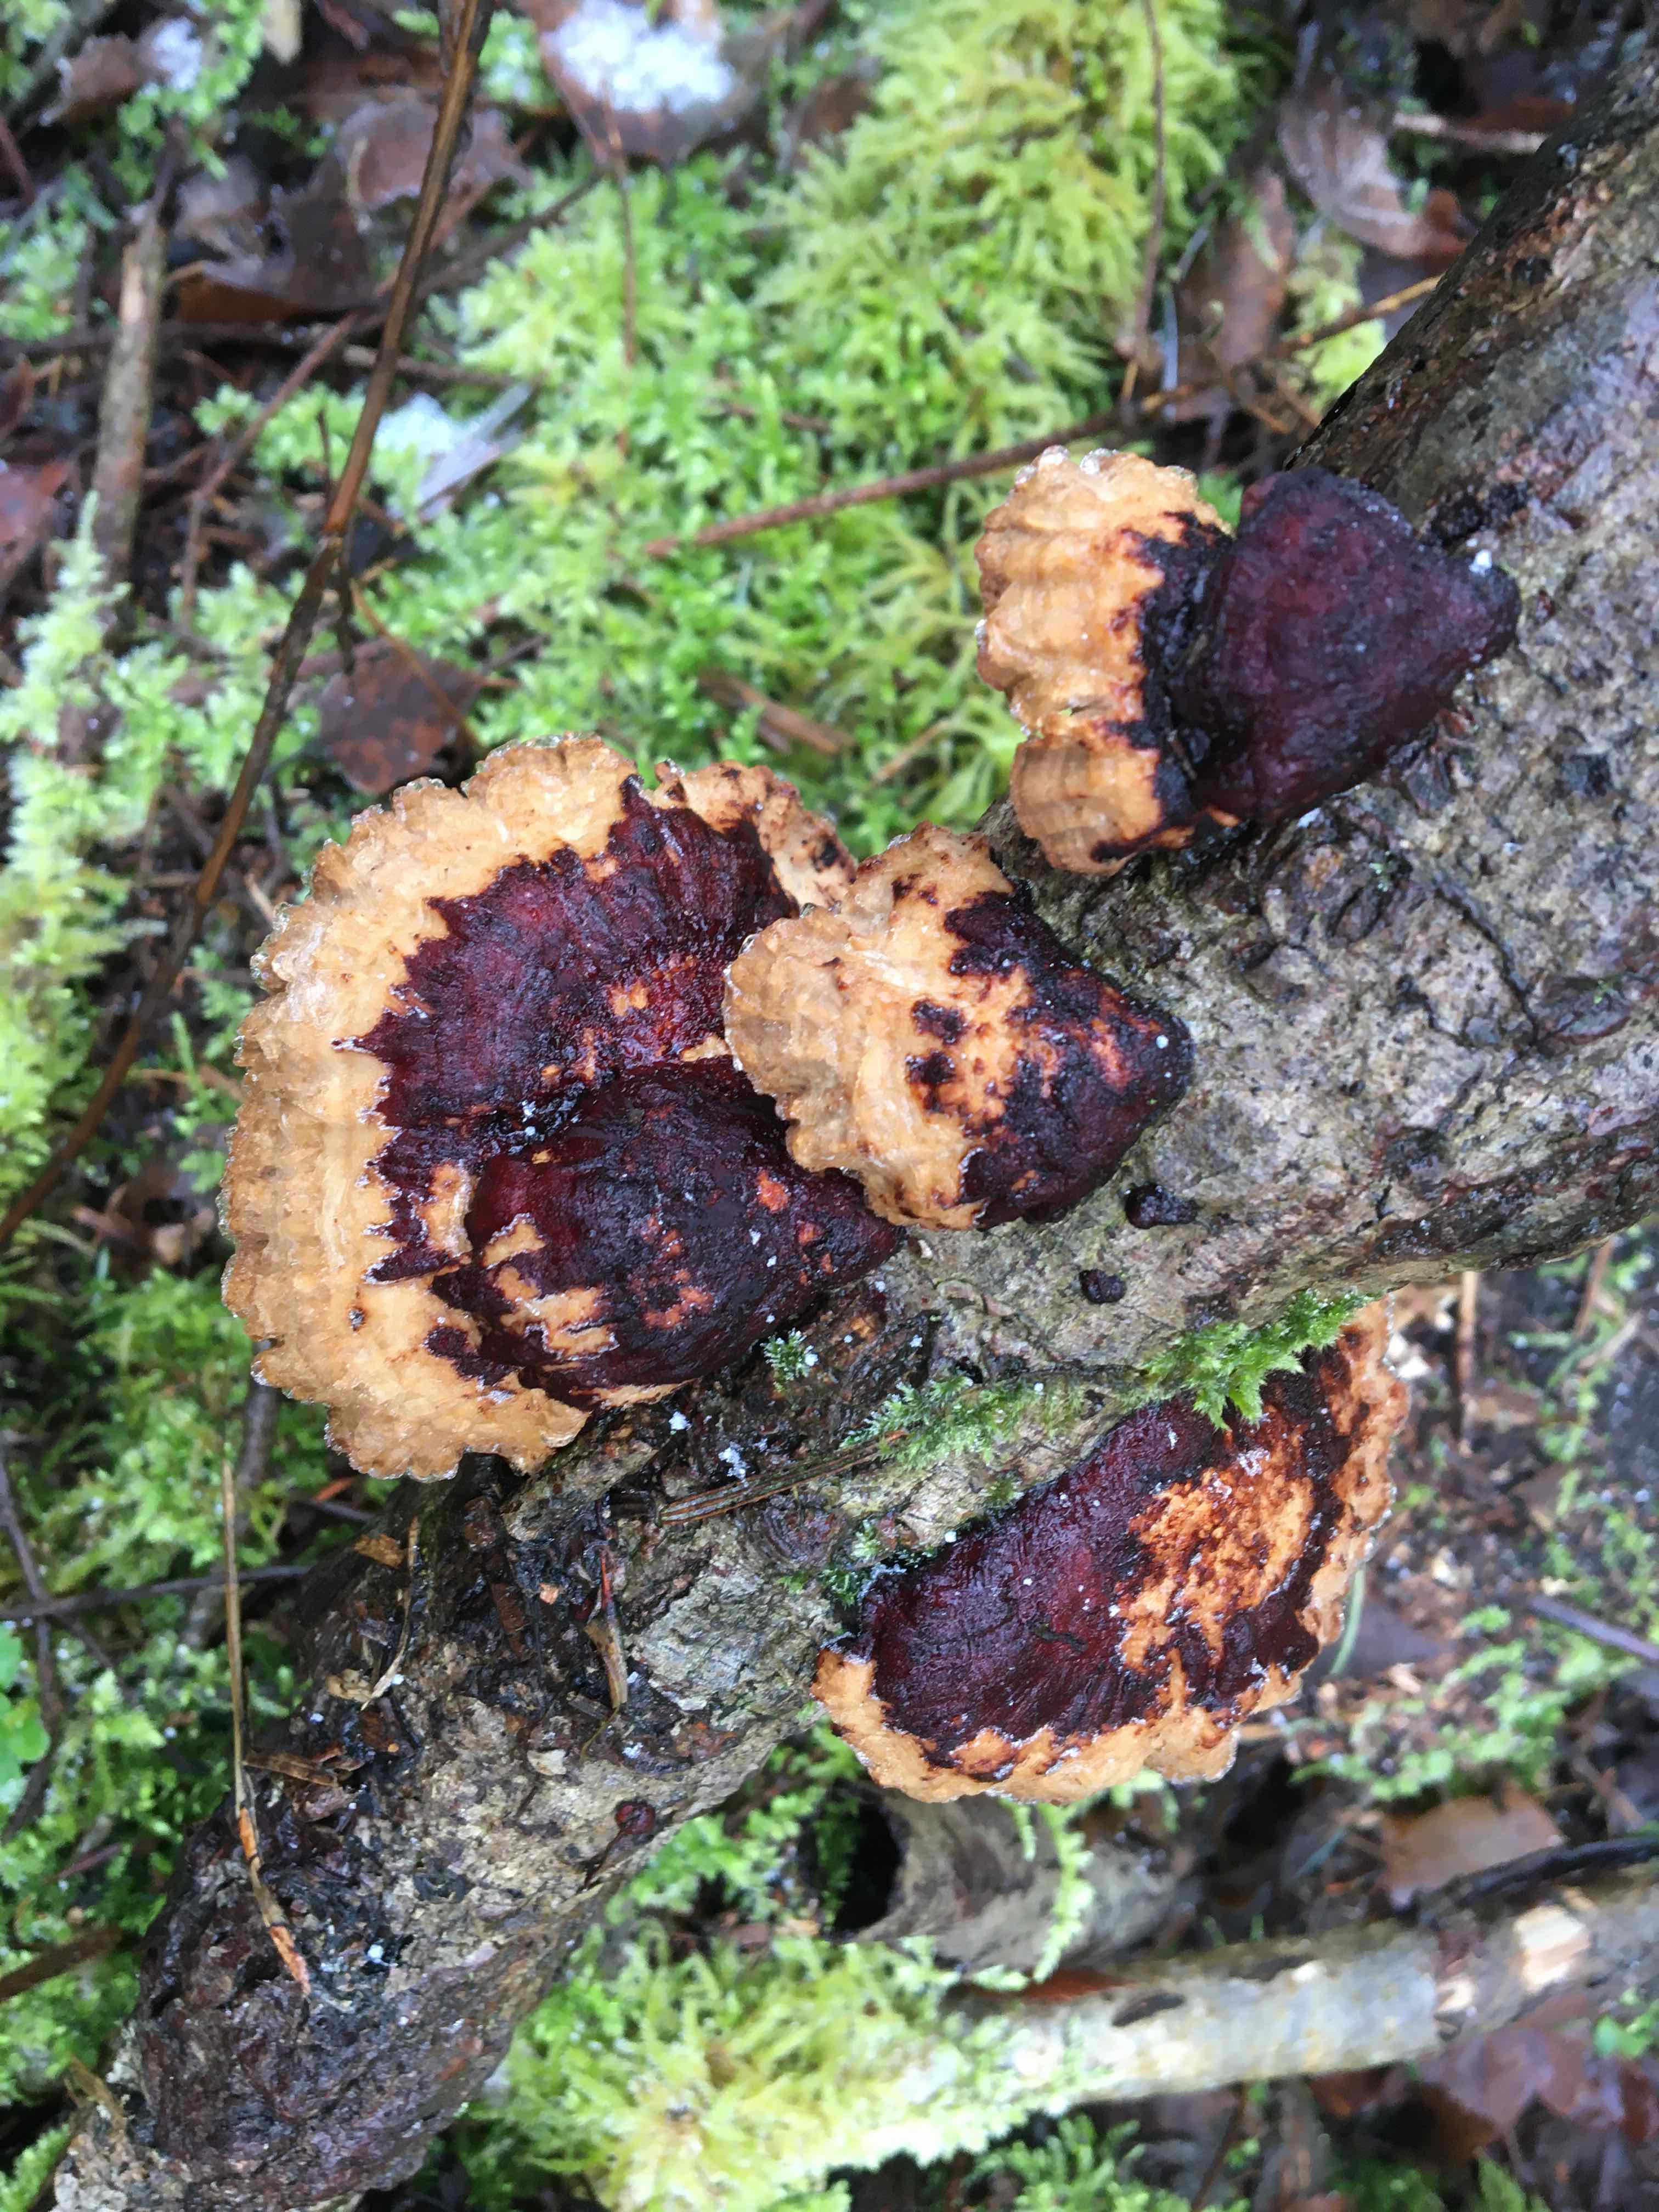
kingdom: Fungi
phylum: Basidiomycota
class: Agaricomycetes
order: Polyporales
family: Polyporaceae
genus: Daedaleopsis
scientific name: Daedaleopsis confragosa
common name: rødmende læderporesvamp
